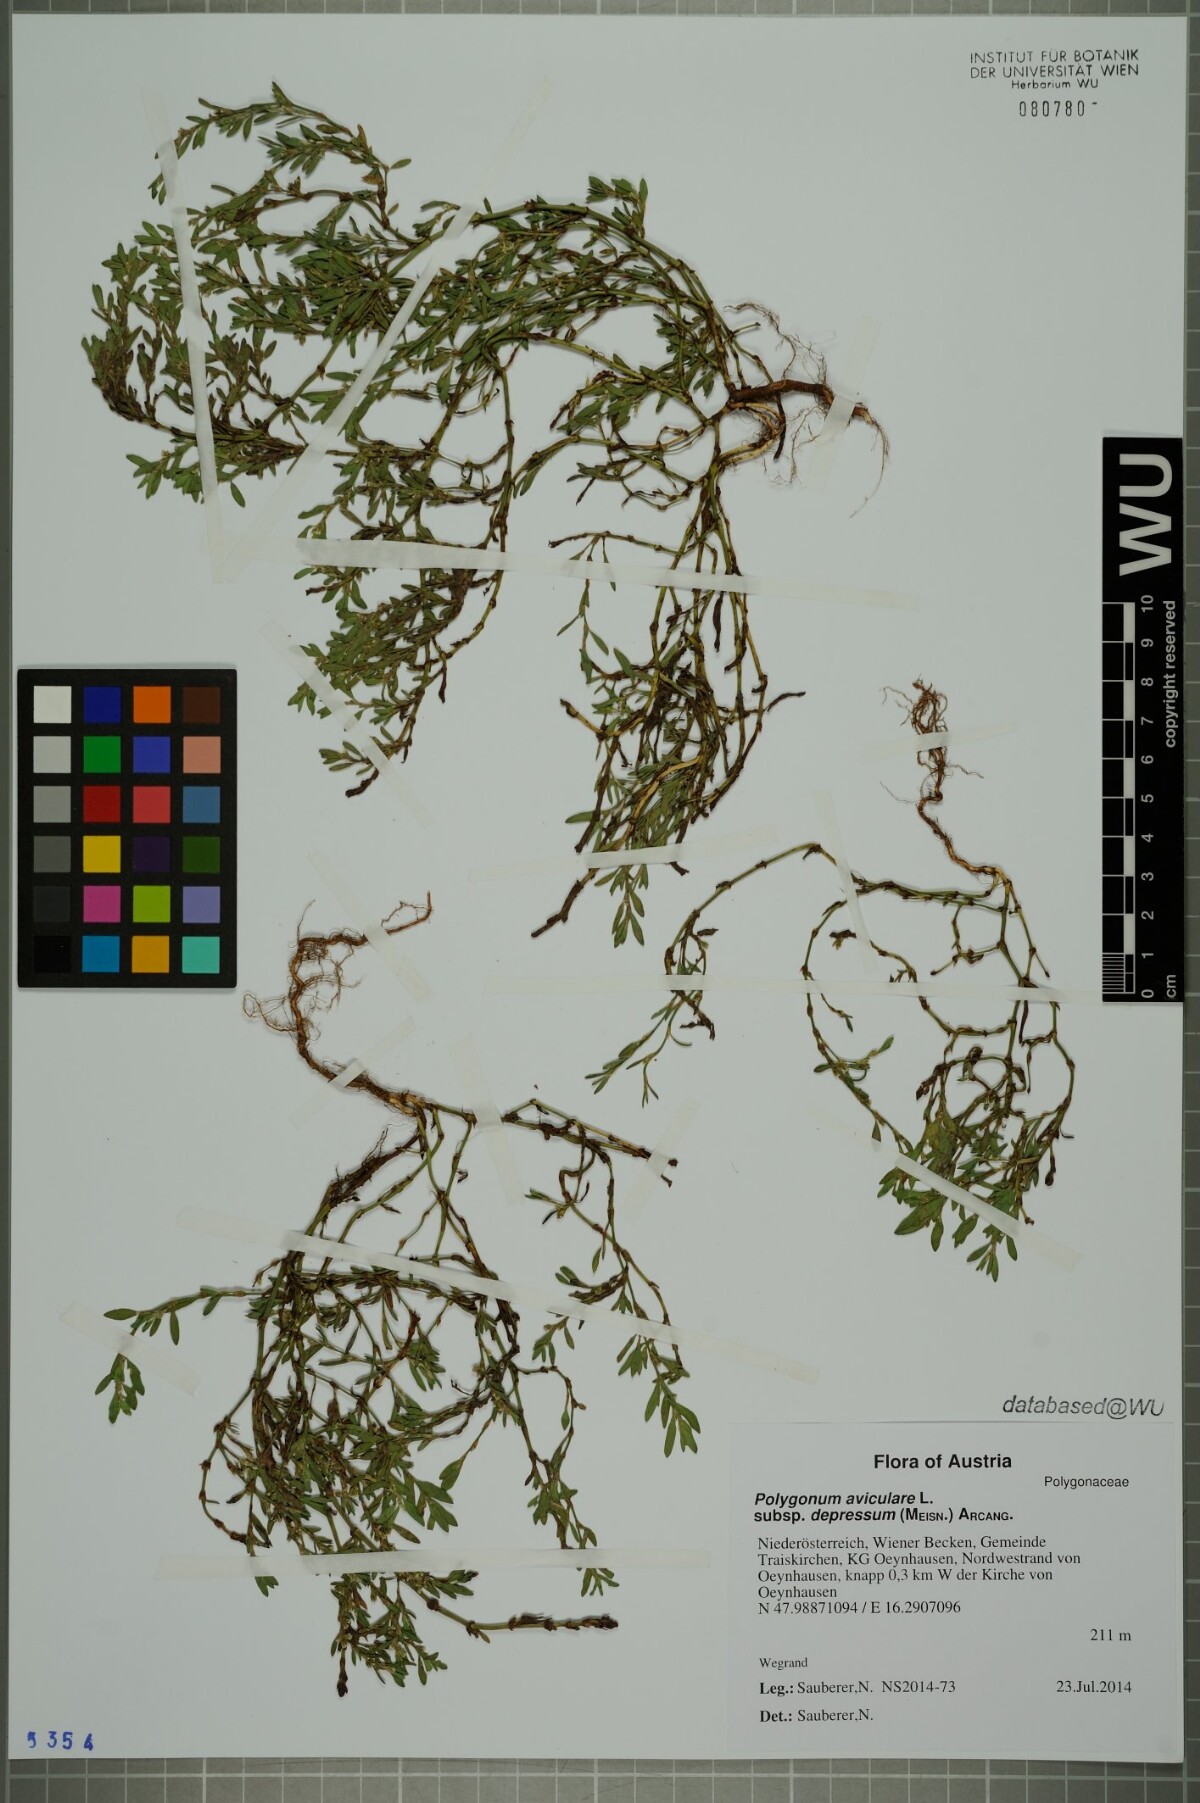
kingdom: Plantae
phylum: Tracheophyta
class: Magnoliopsida
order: Caryophyllales
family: Polygonaceae
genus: Polygonum
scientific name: Polygonum arenastrum
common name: Equal-leaved knotgrass
